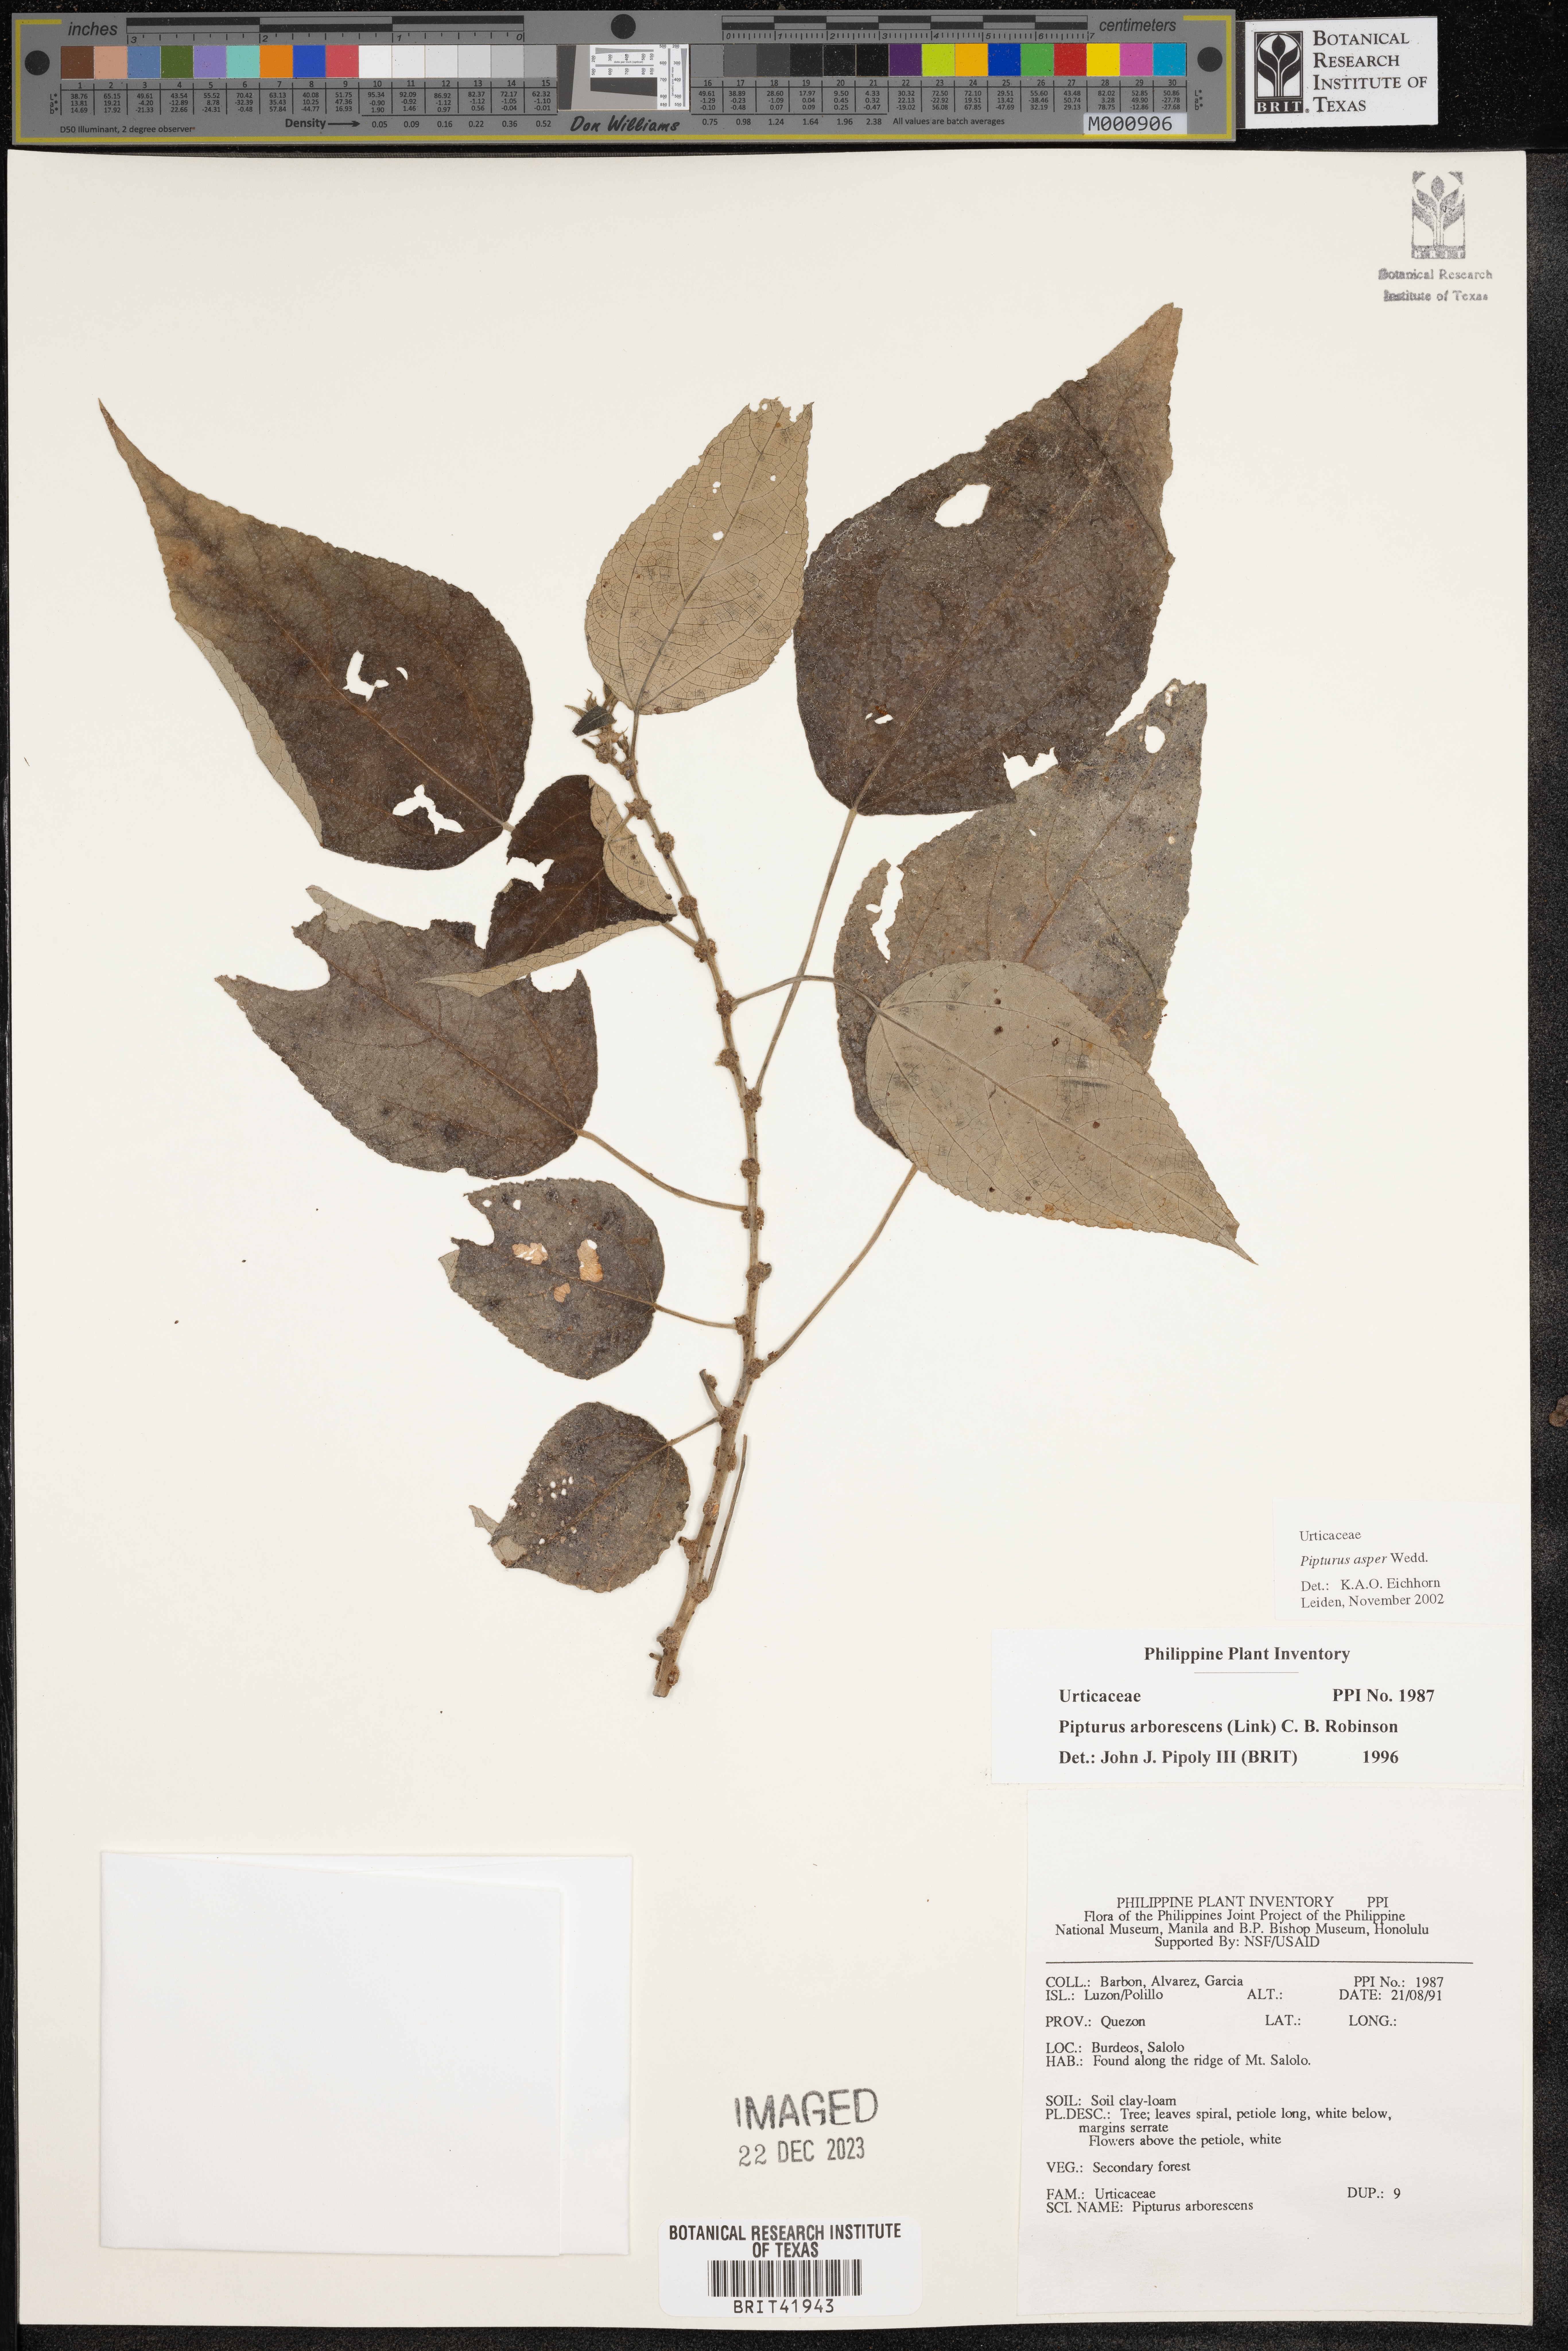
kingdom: Plantae
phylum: Tracheophyta
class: Magnoliopsida
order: Rosales
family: Urticaceae
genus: Pipturus
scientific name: Pipturus arborescens
